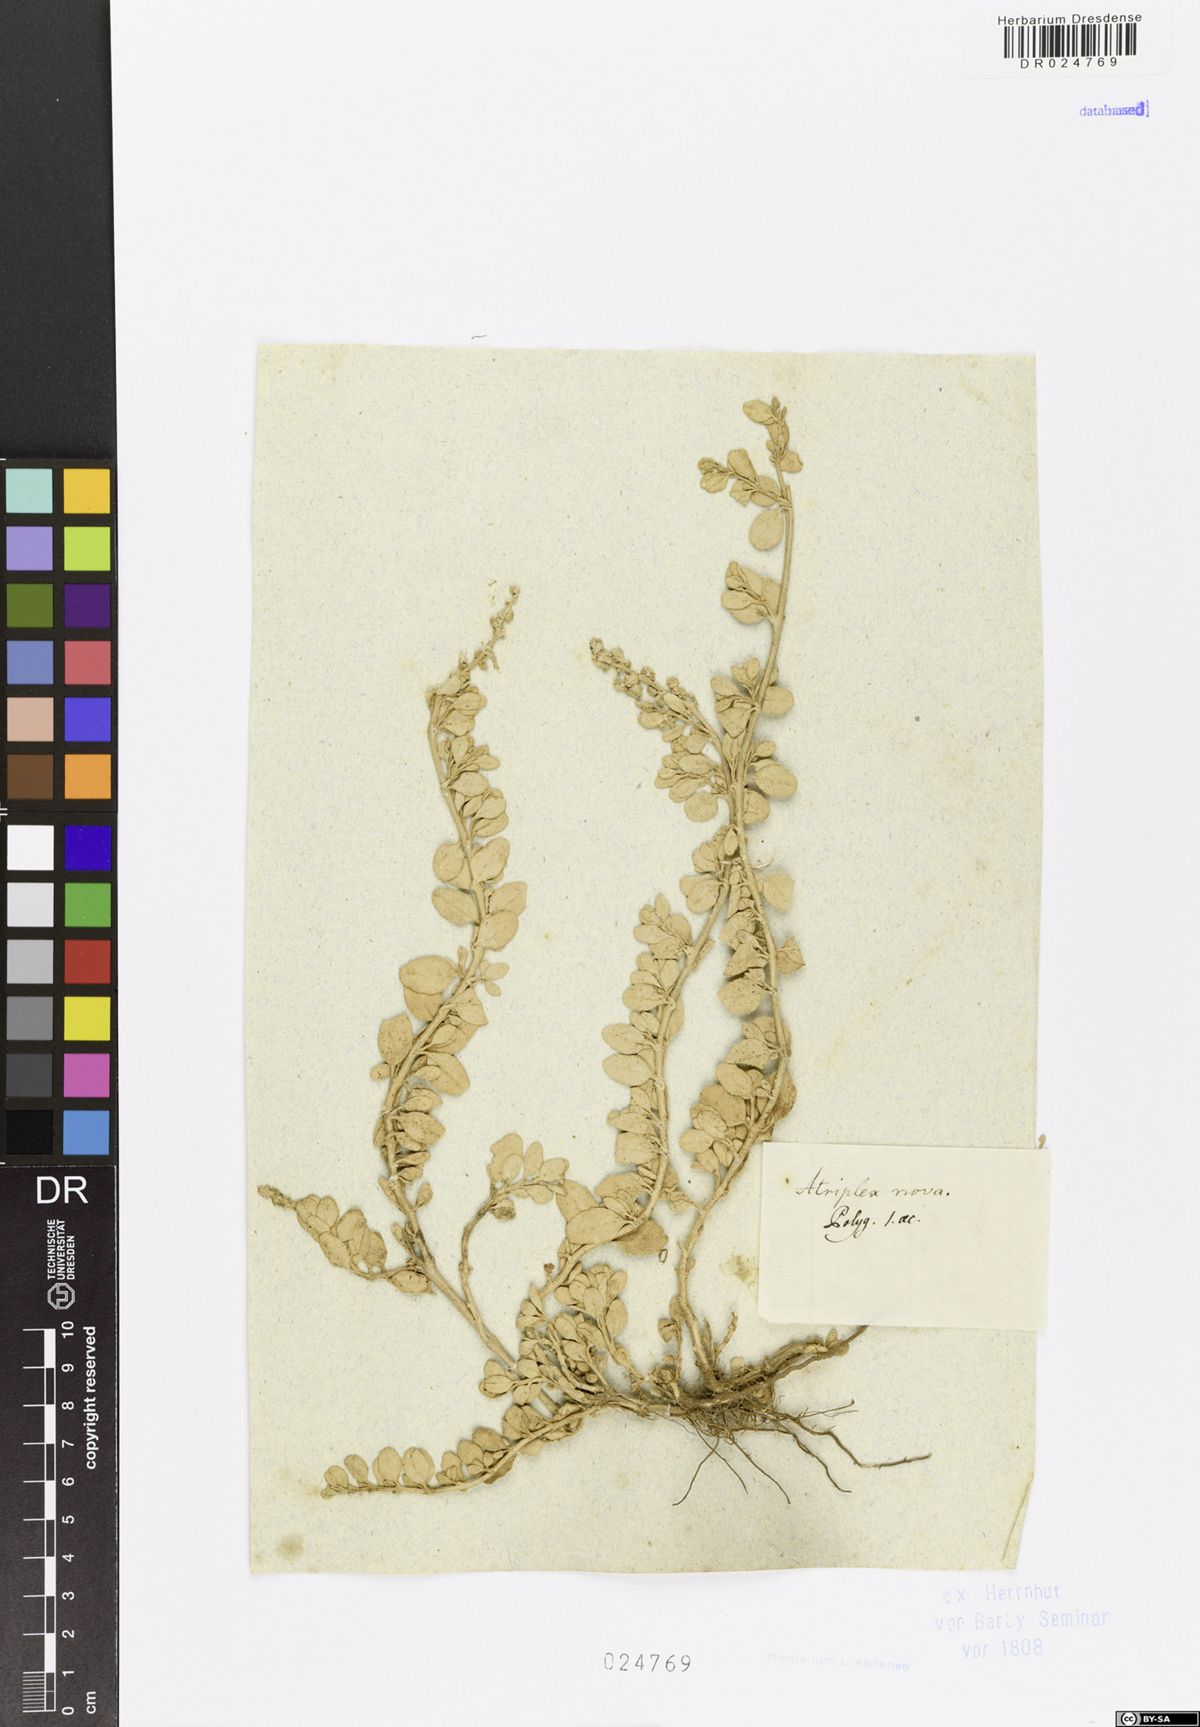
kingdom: Plantae
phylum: Tracheophyta
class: Magnoliopsida
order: Caryophyllales
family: Amaranthaceae
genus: Atriplex
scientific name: Atriplex
